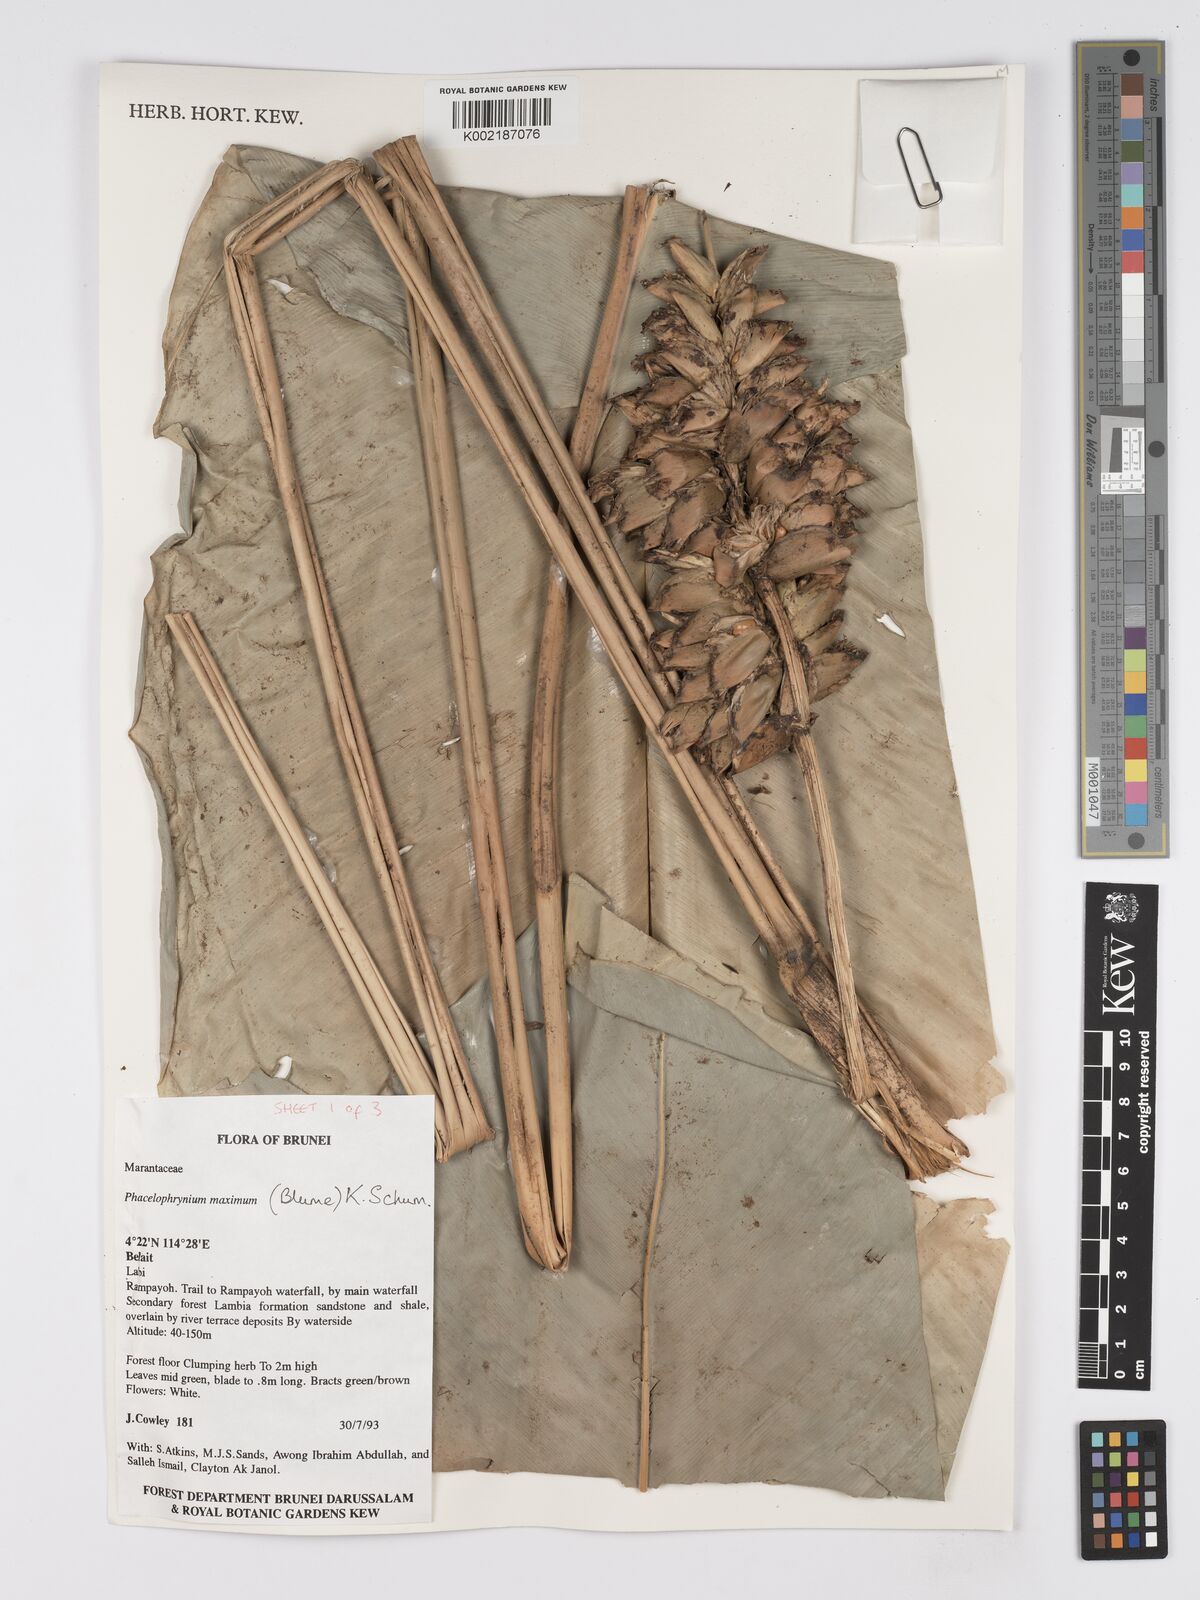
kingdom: Plantae
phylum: Tracheophyta
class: Liliopsida
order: Zingiberales
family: Marantaceae
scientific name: Marantaceae
